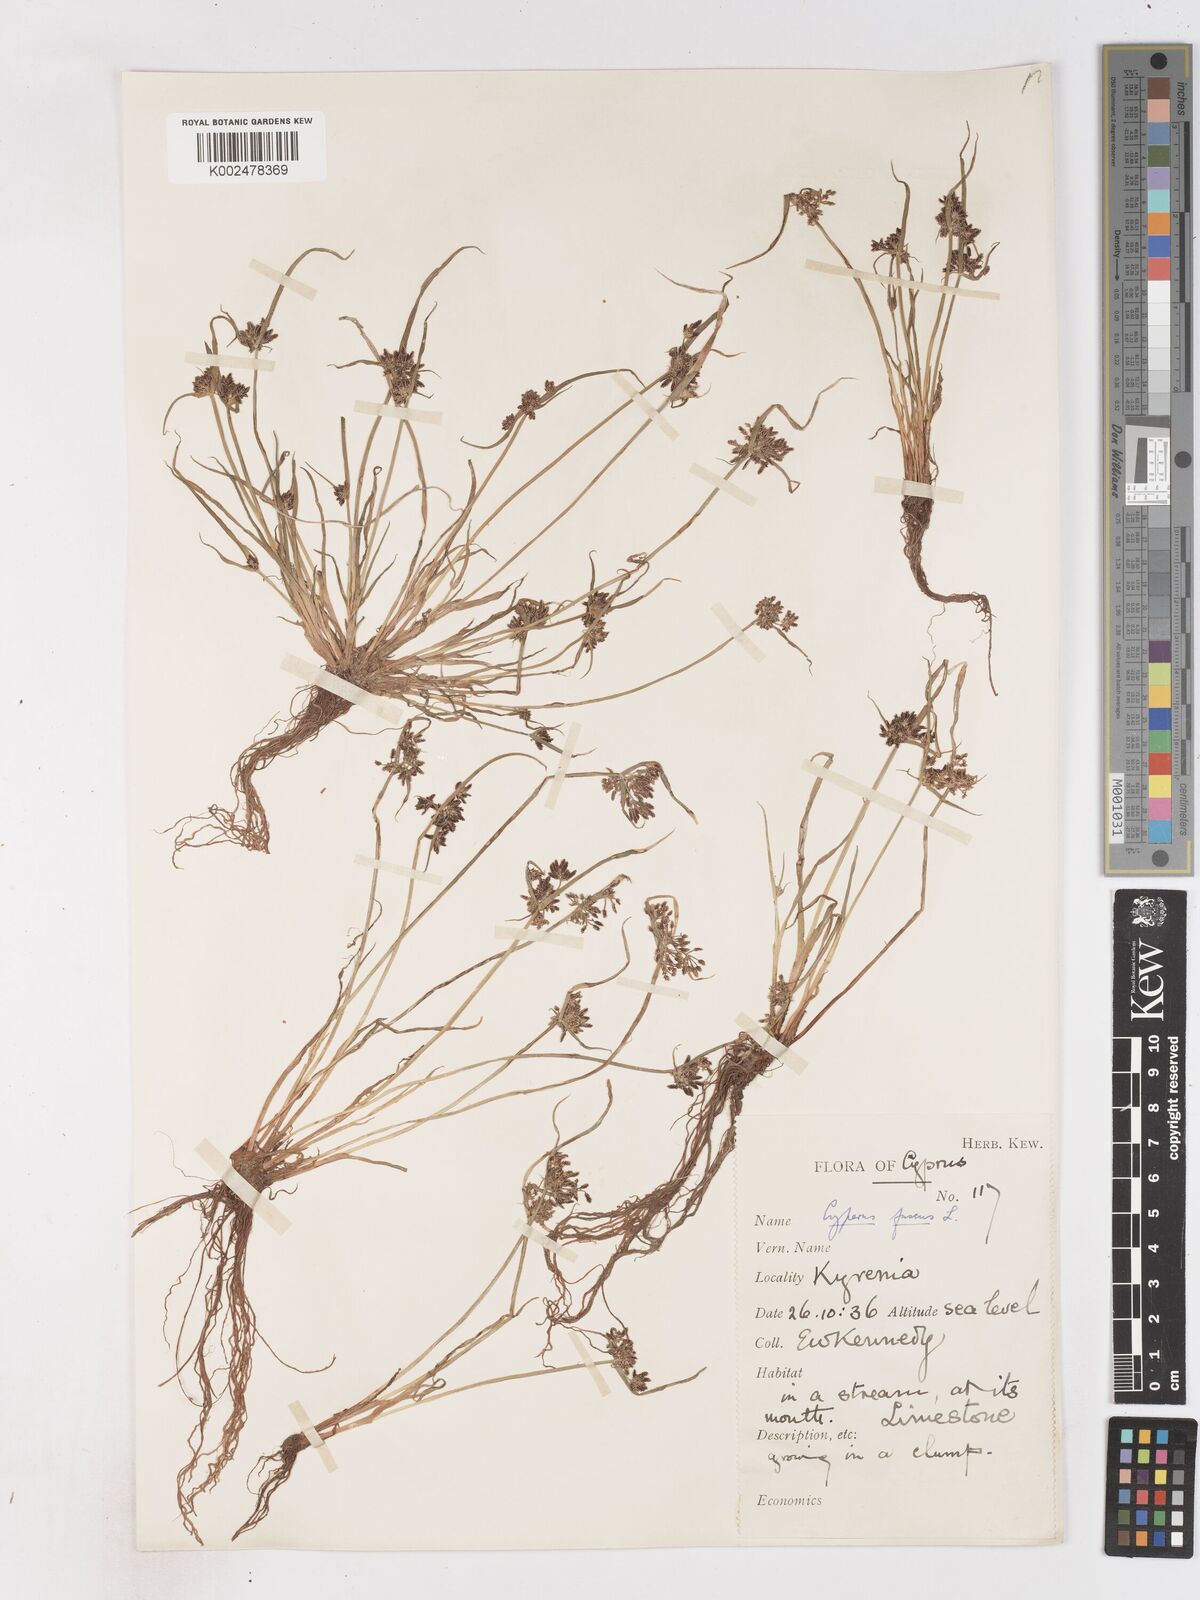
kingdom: Plantae
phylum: Tracheophyta
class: Liliopsida
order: Poales
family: Cyperaceae
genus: Cyperus
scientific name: Cyperus fuscus
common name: Brown galingale
